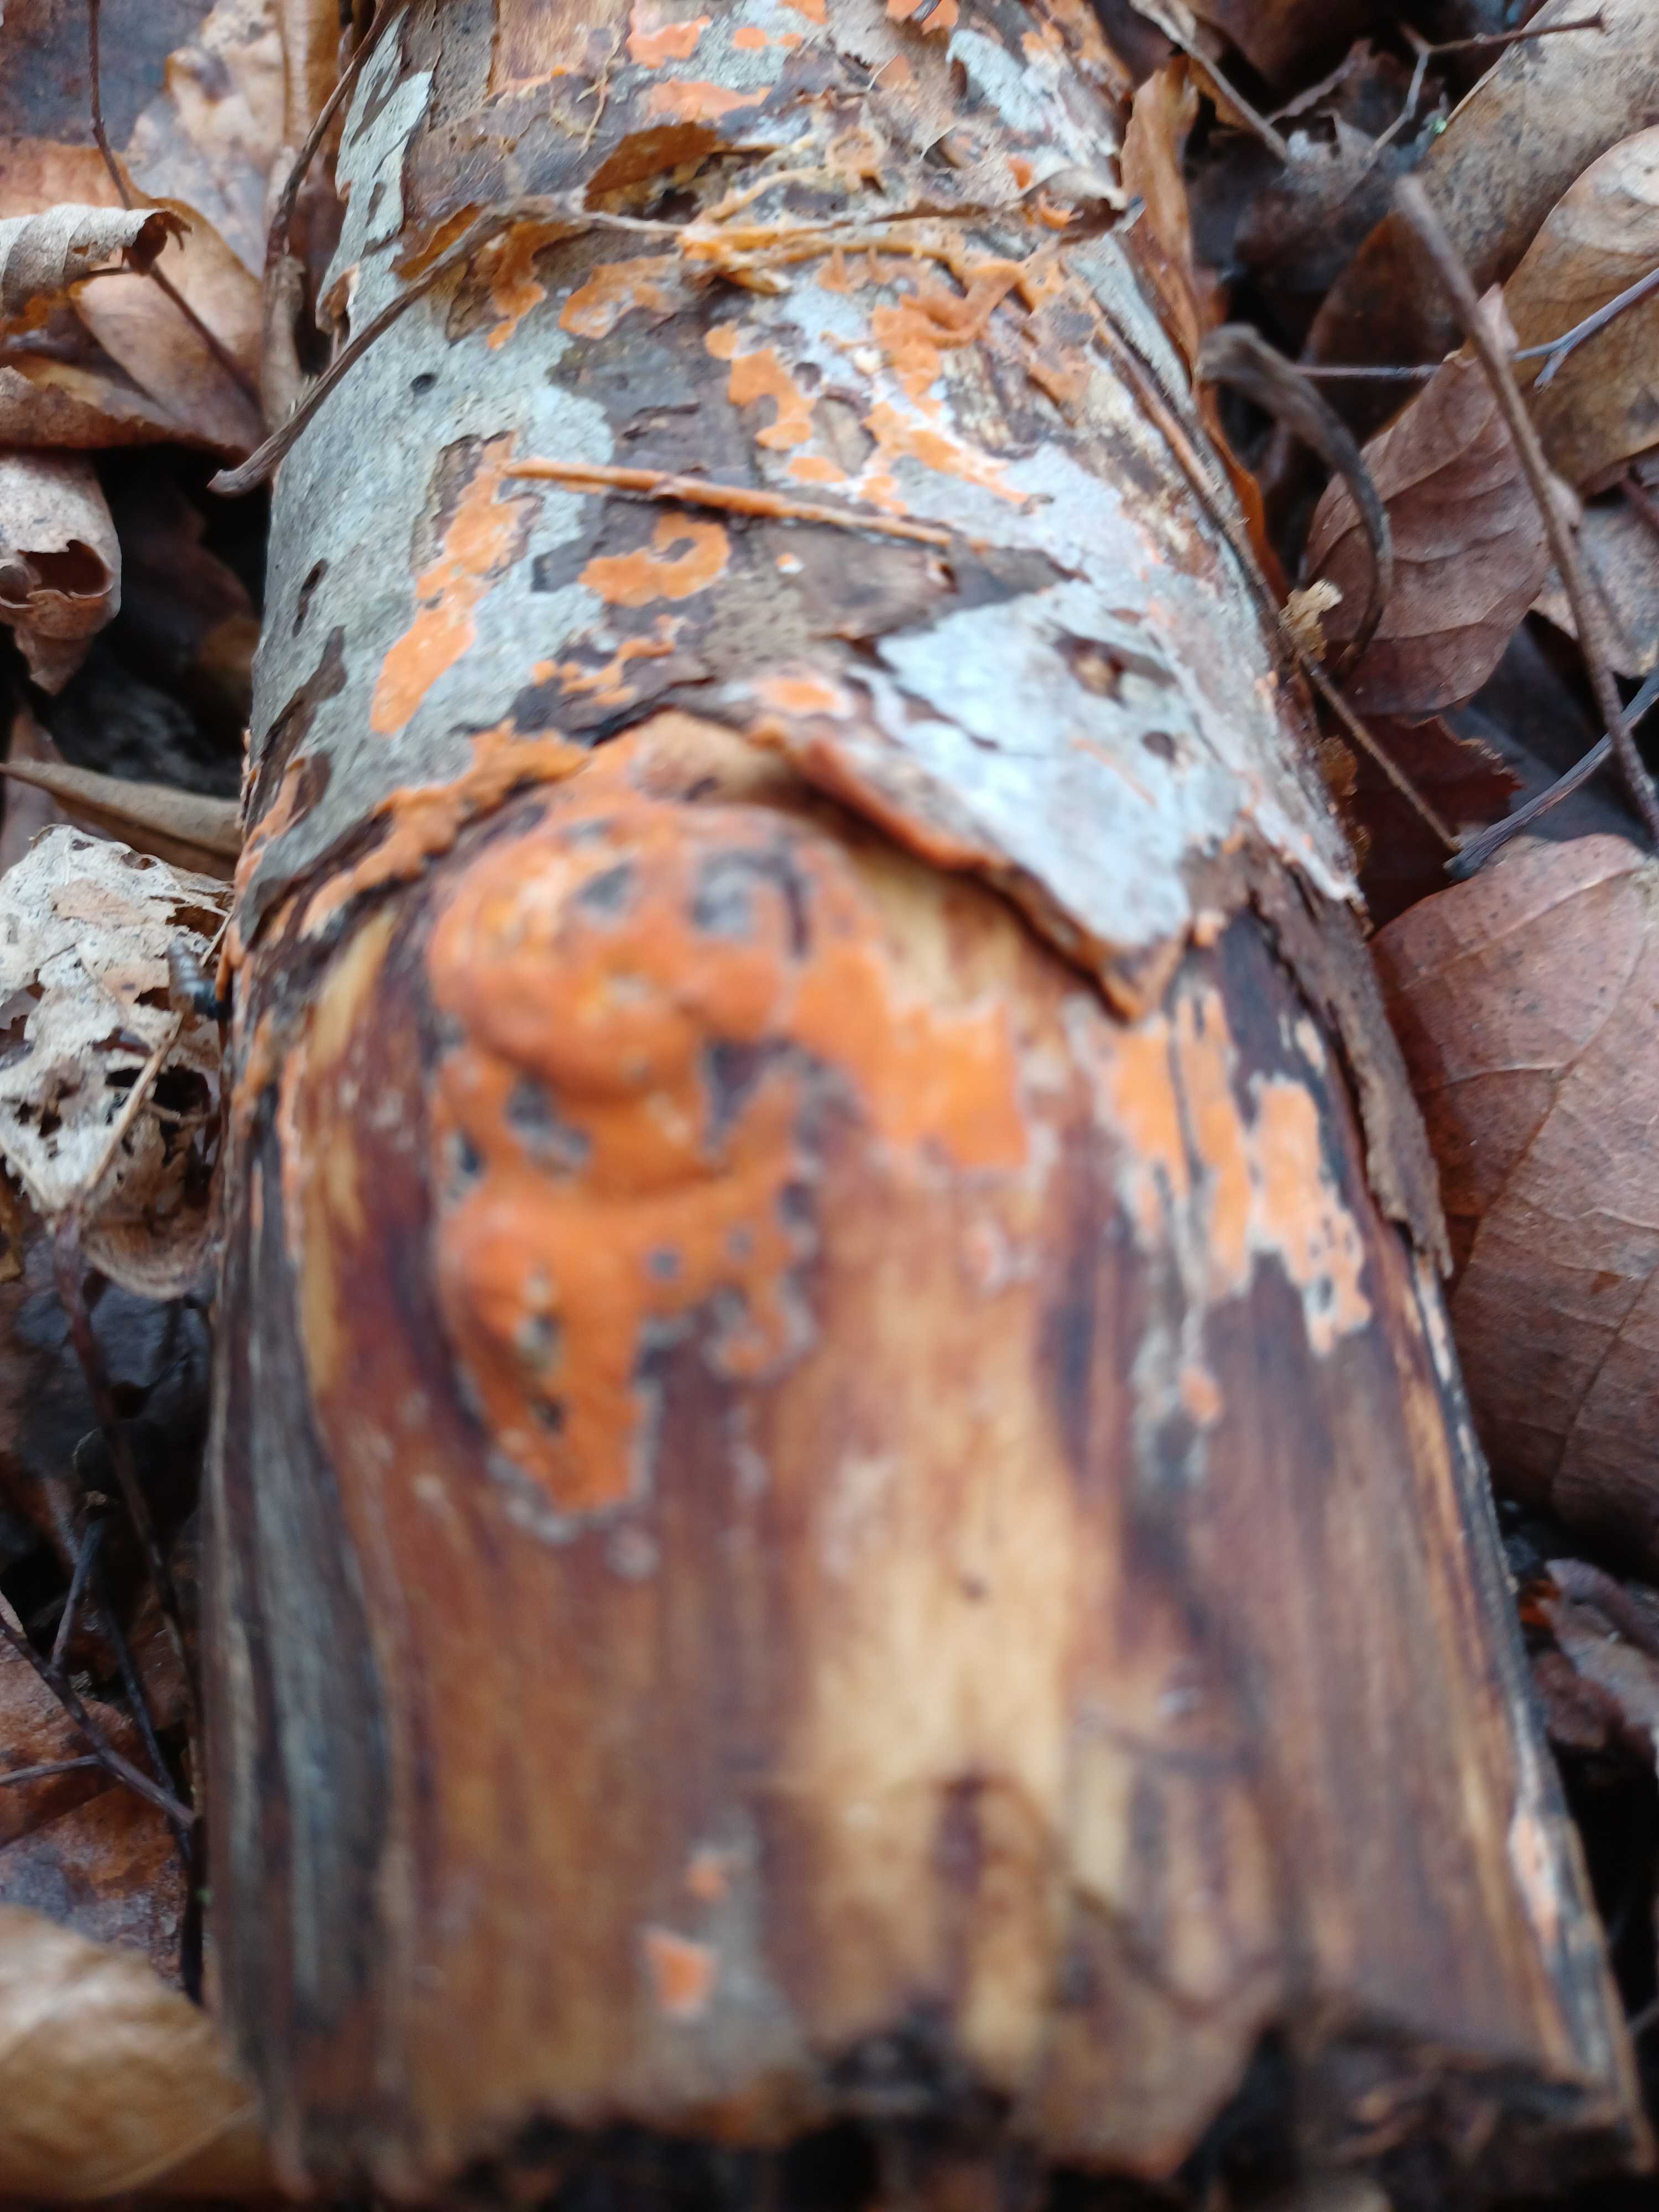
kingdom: Fungi
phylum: Basidiomycota
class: Agaricomycetes
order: Russulales
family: Peniophoraceae
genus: Peniophora
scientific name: Peniophora incarnata
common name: laksefarvet voksskind
